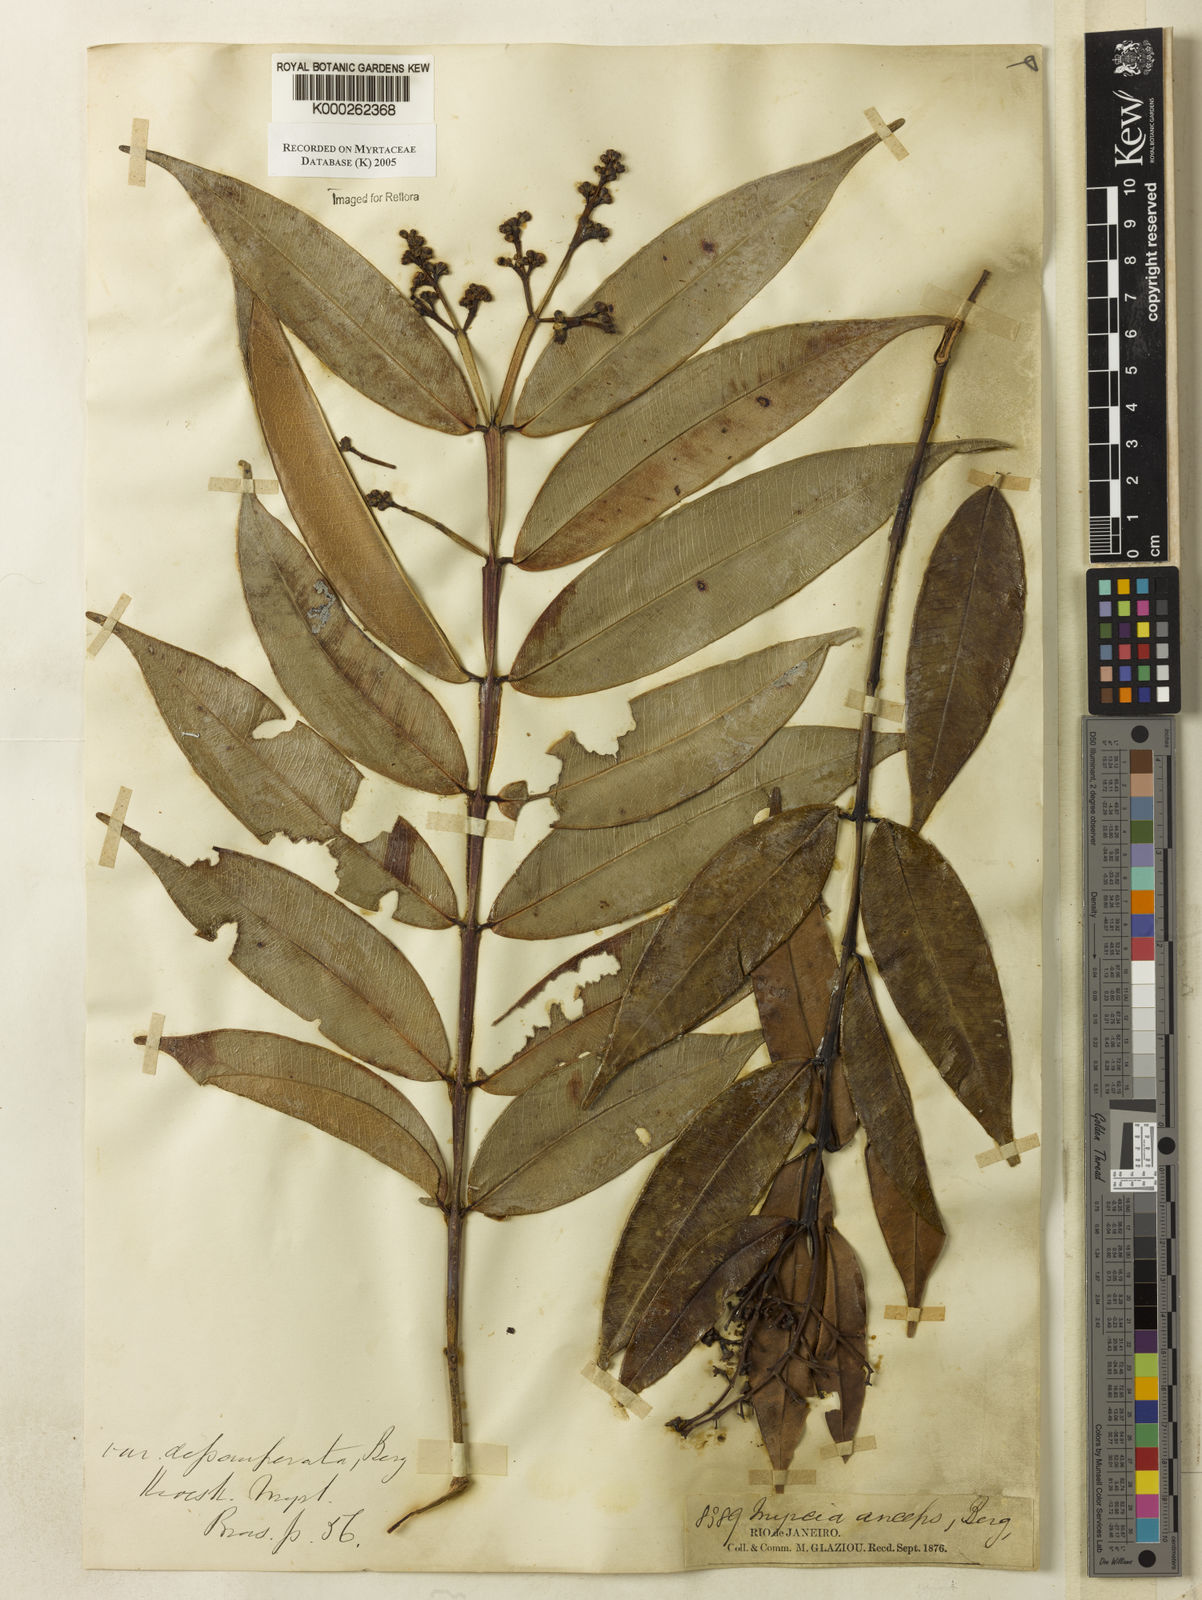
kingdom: Plantae
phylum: Tracheophyta
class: Magnoliopsida
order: Myrtales
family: Myrtaceae
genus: Myrcia
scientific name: Myrcia anceps
